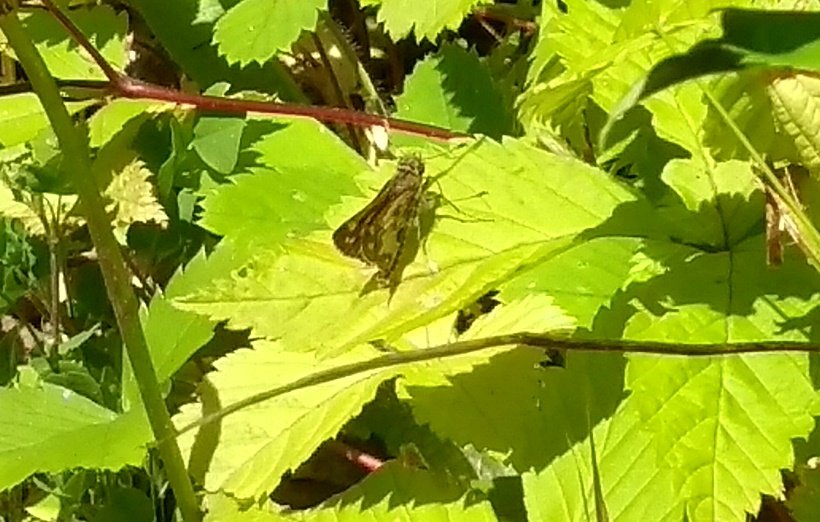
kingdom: Animalia
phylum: Arthropoda
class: Insecta
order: Lepidoptera
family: Hesperiidae
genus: Polites
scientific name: Polites coras
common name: Peck's Skipper
